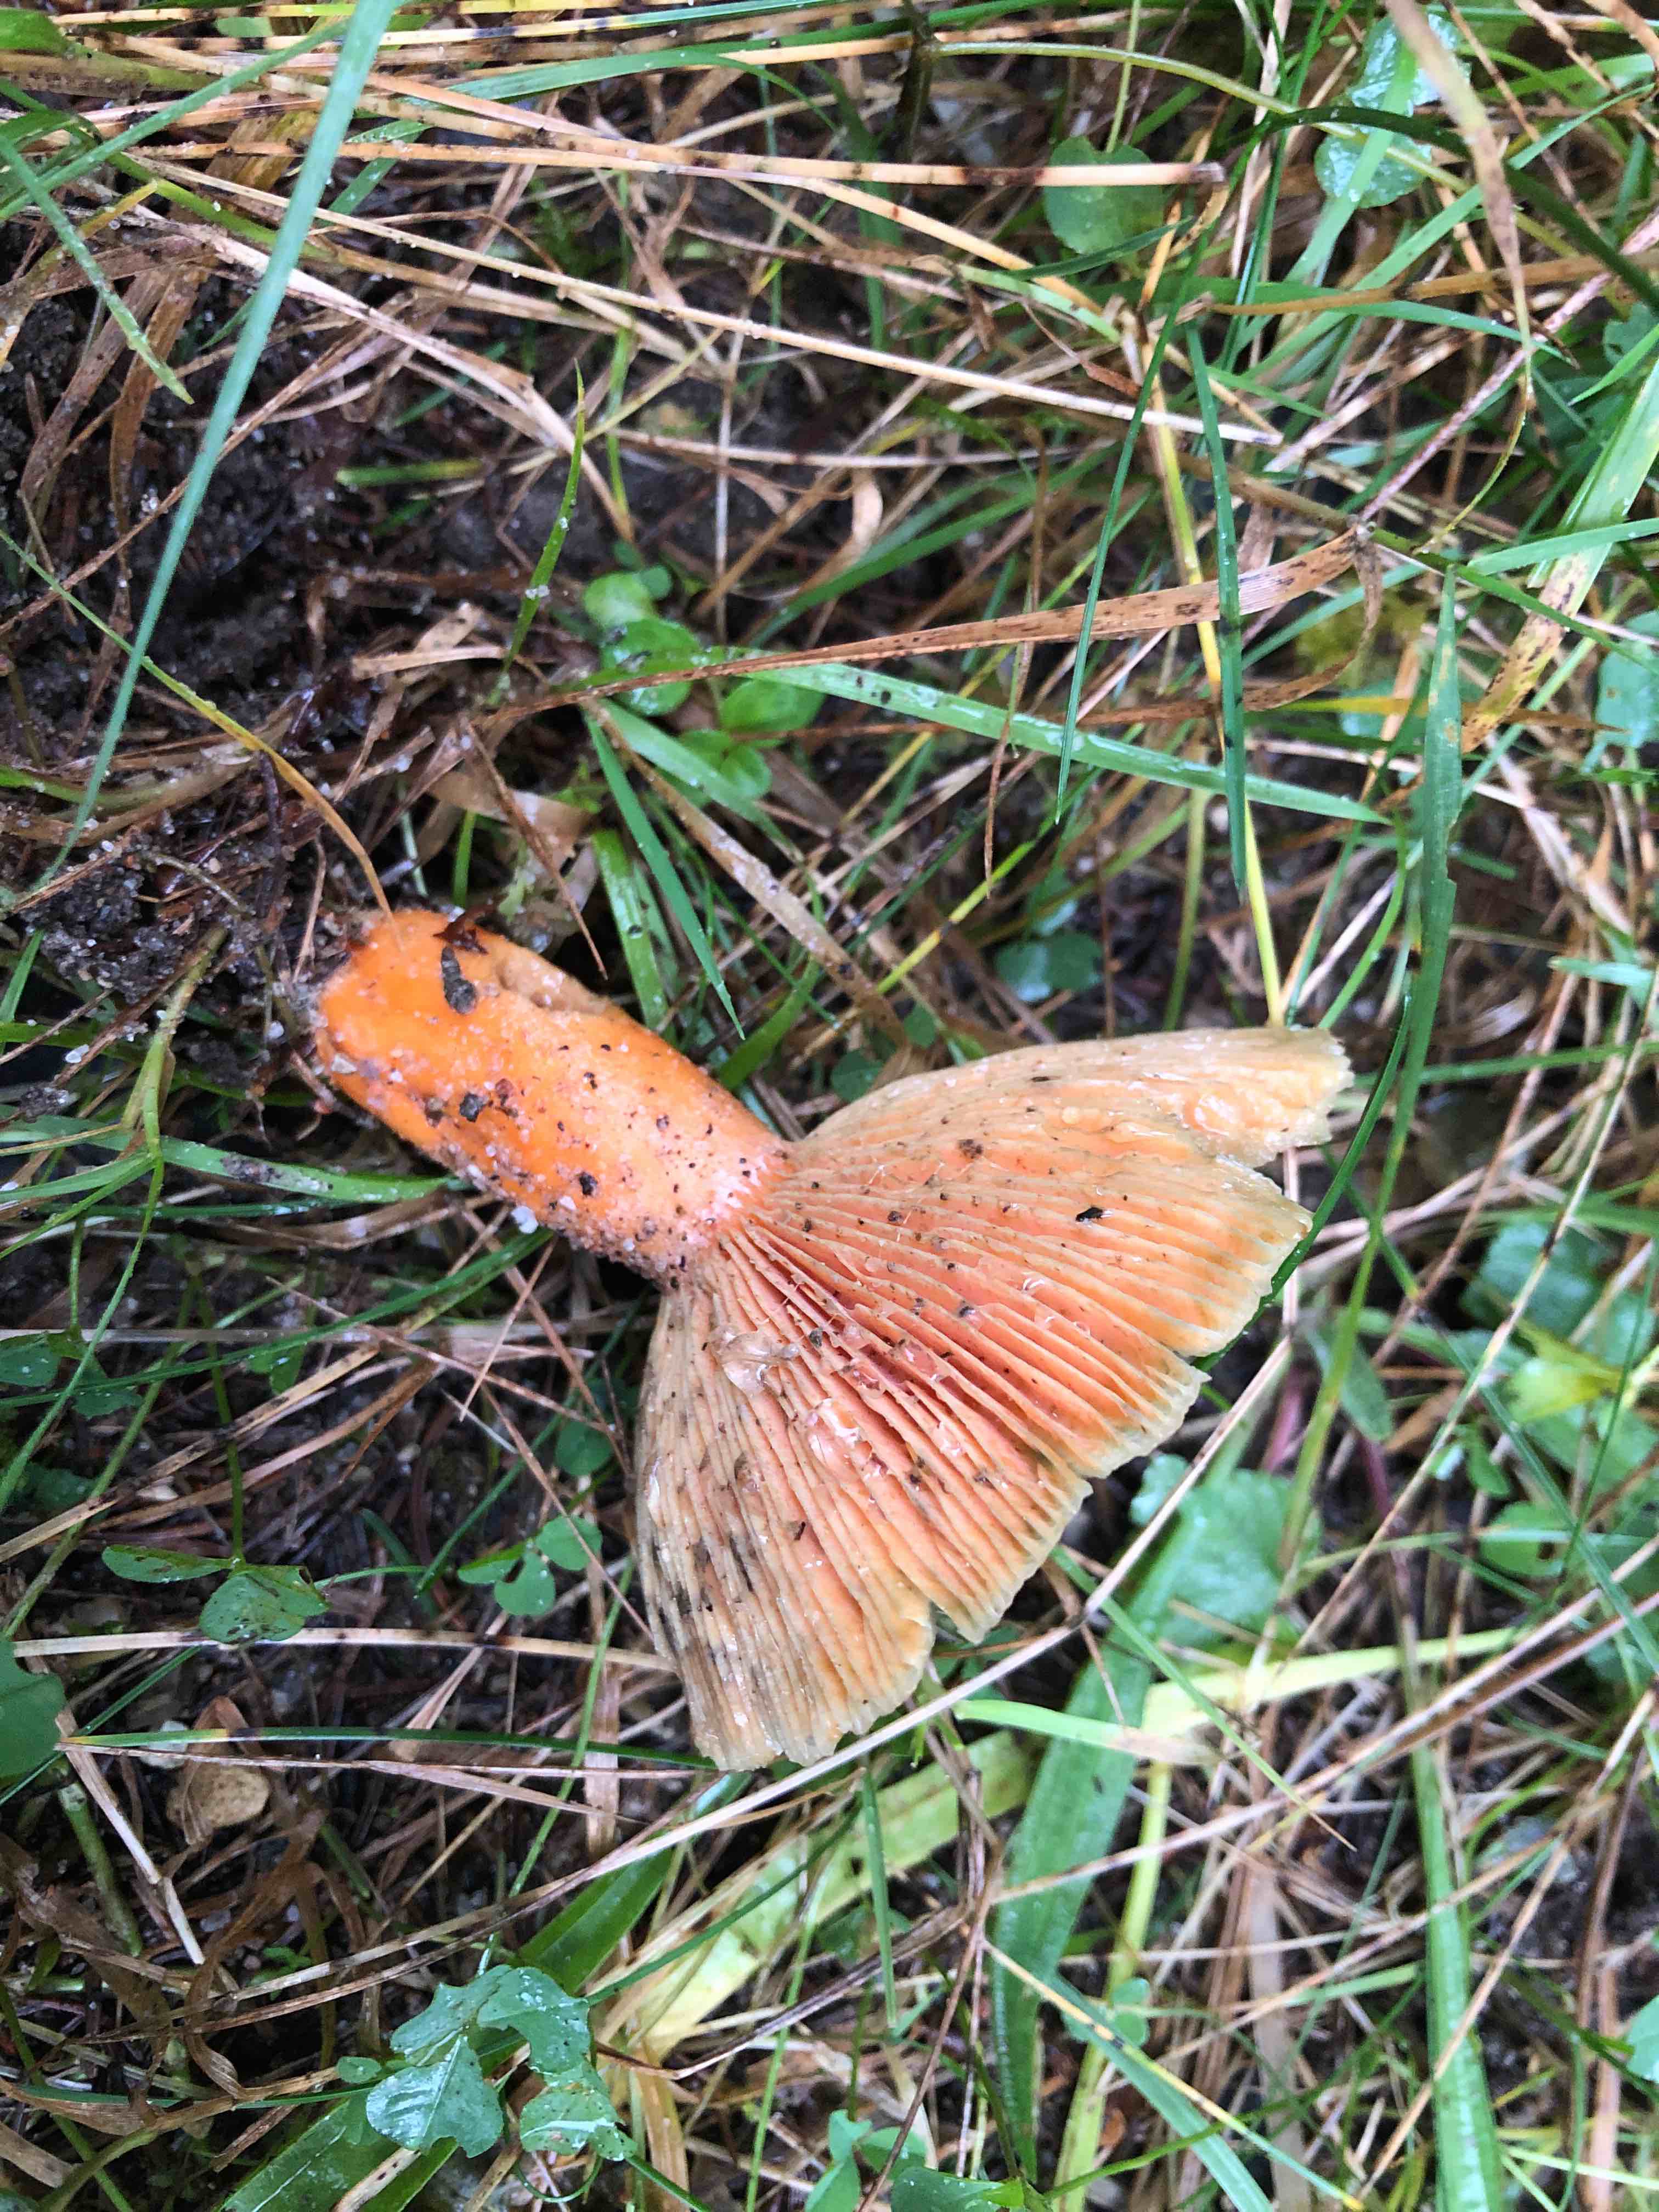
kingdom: Fungi
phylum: Basidiomycota
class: Agaricomycetes
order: Russulales
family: Russulaceae
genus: Lactarius
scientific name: Lactarius deterrimus
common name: gran-mælkehat
